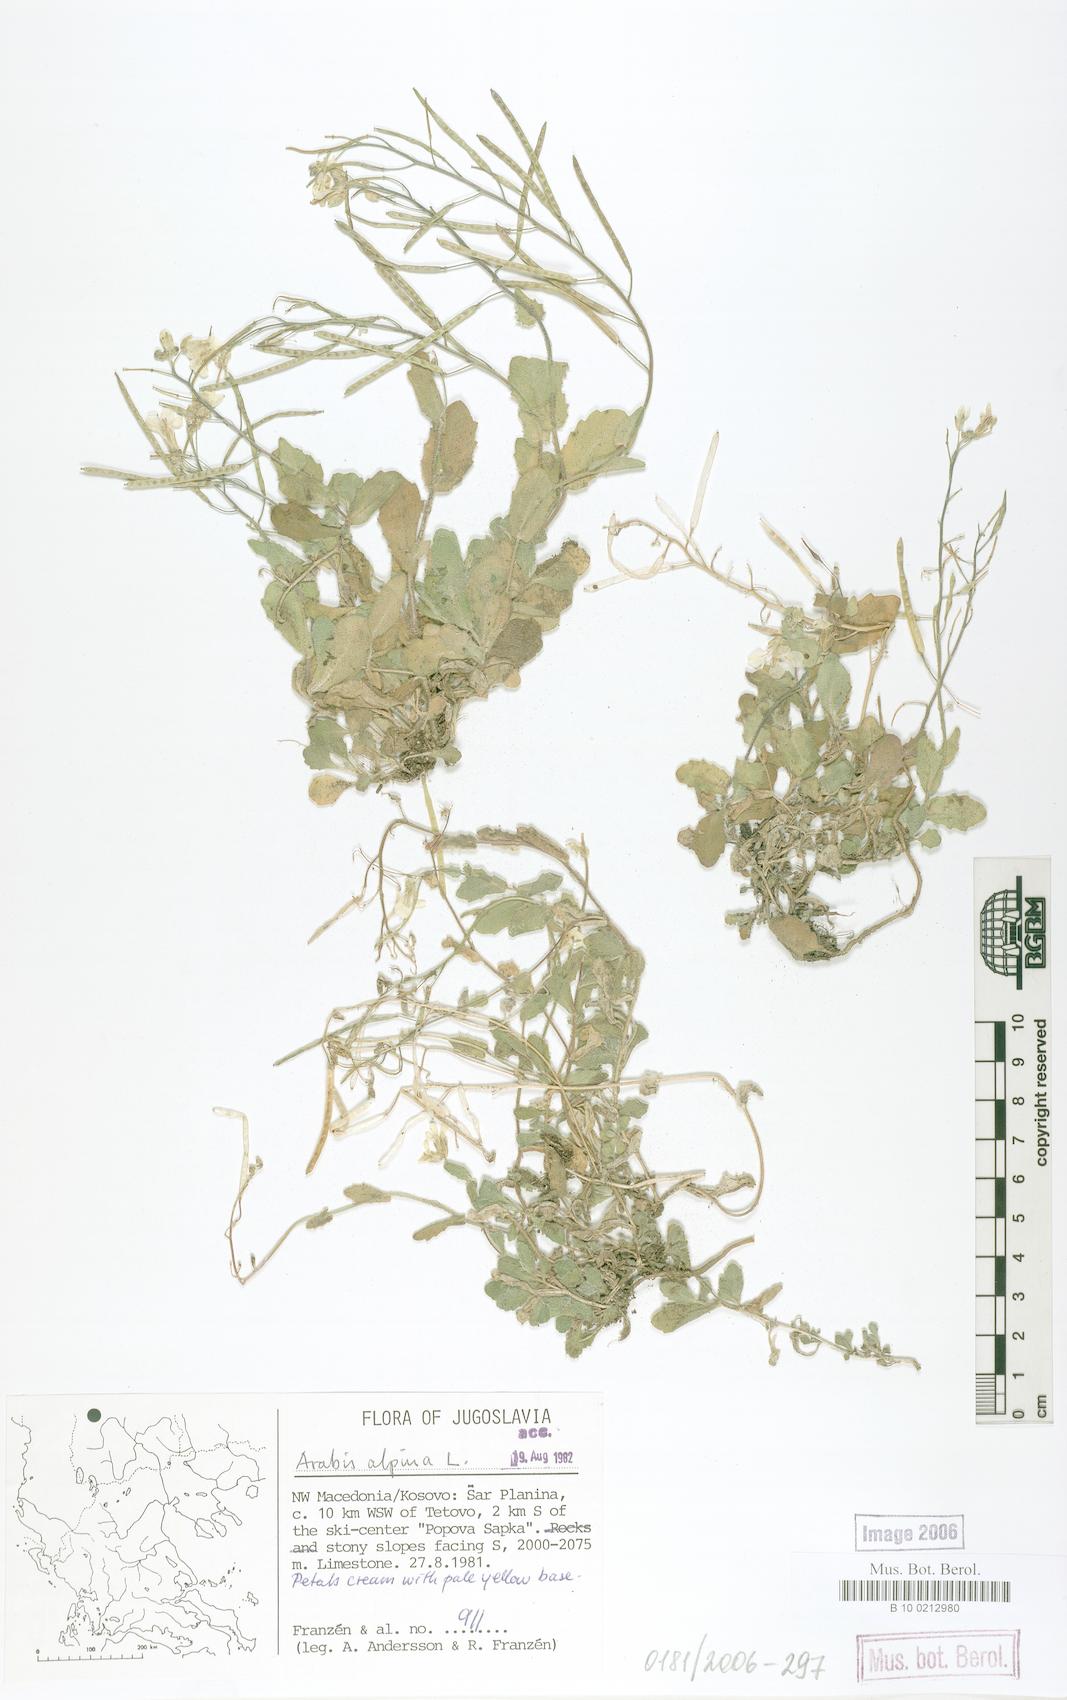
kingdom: Plantae
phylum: Tracheophyta
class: Magnoliopsida
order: Brassicales
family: Brassicaceae
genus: Arabis
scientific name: Arabis alpina
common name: Alpine rock-cress
